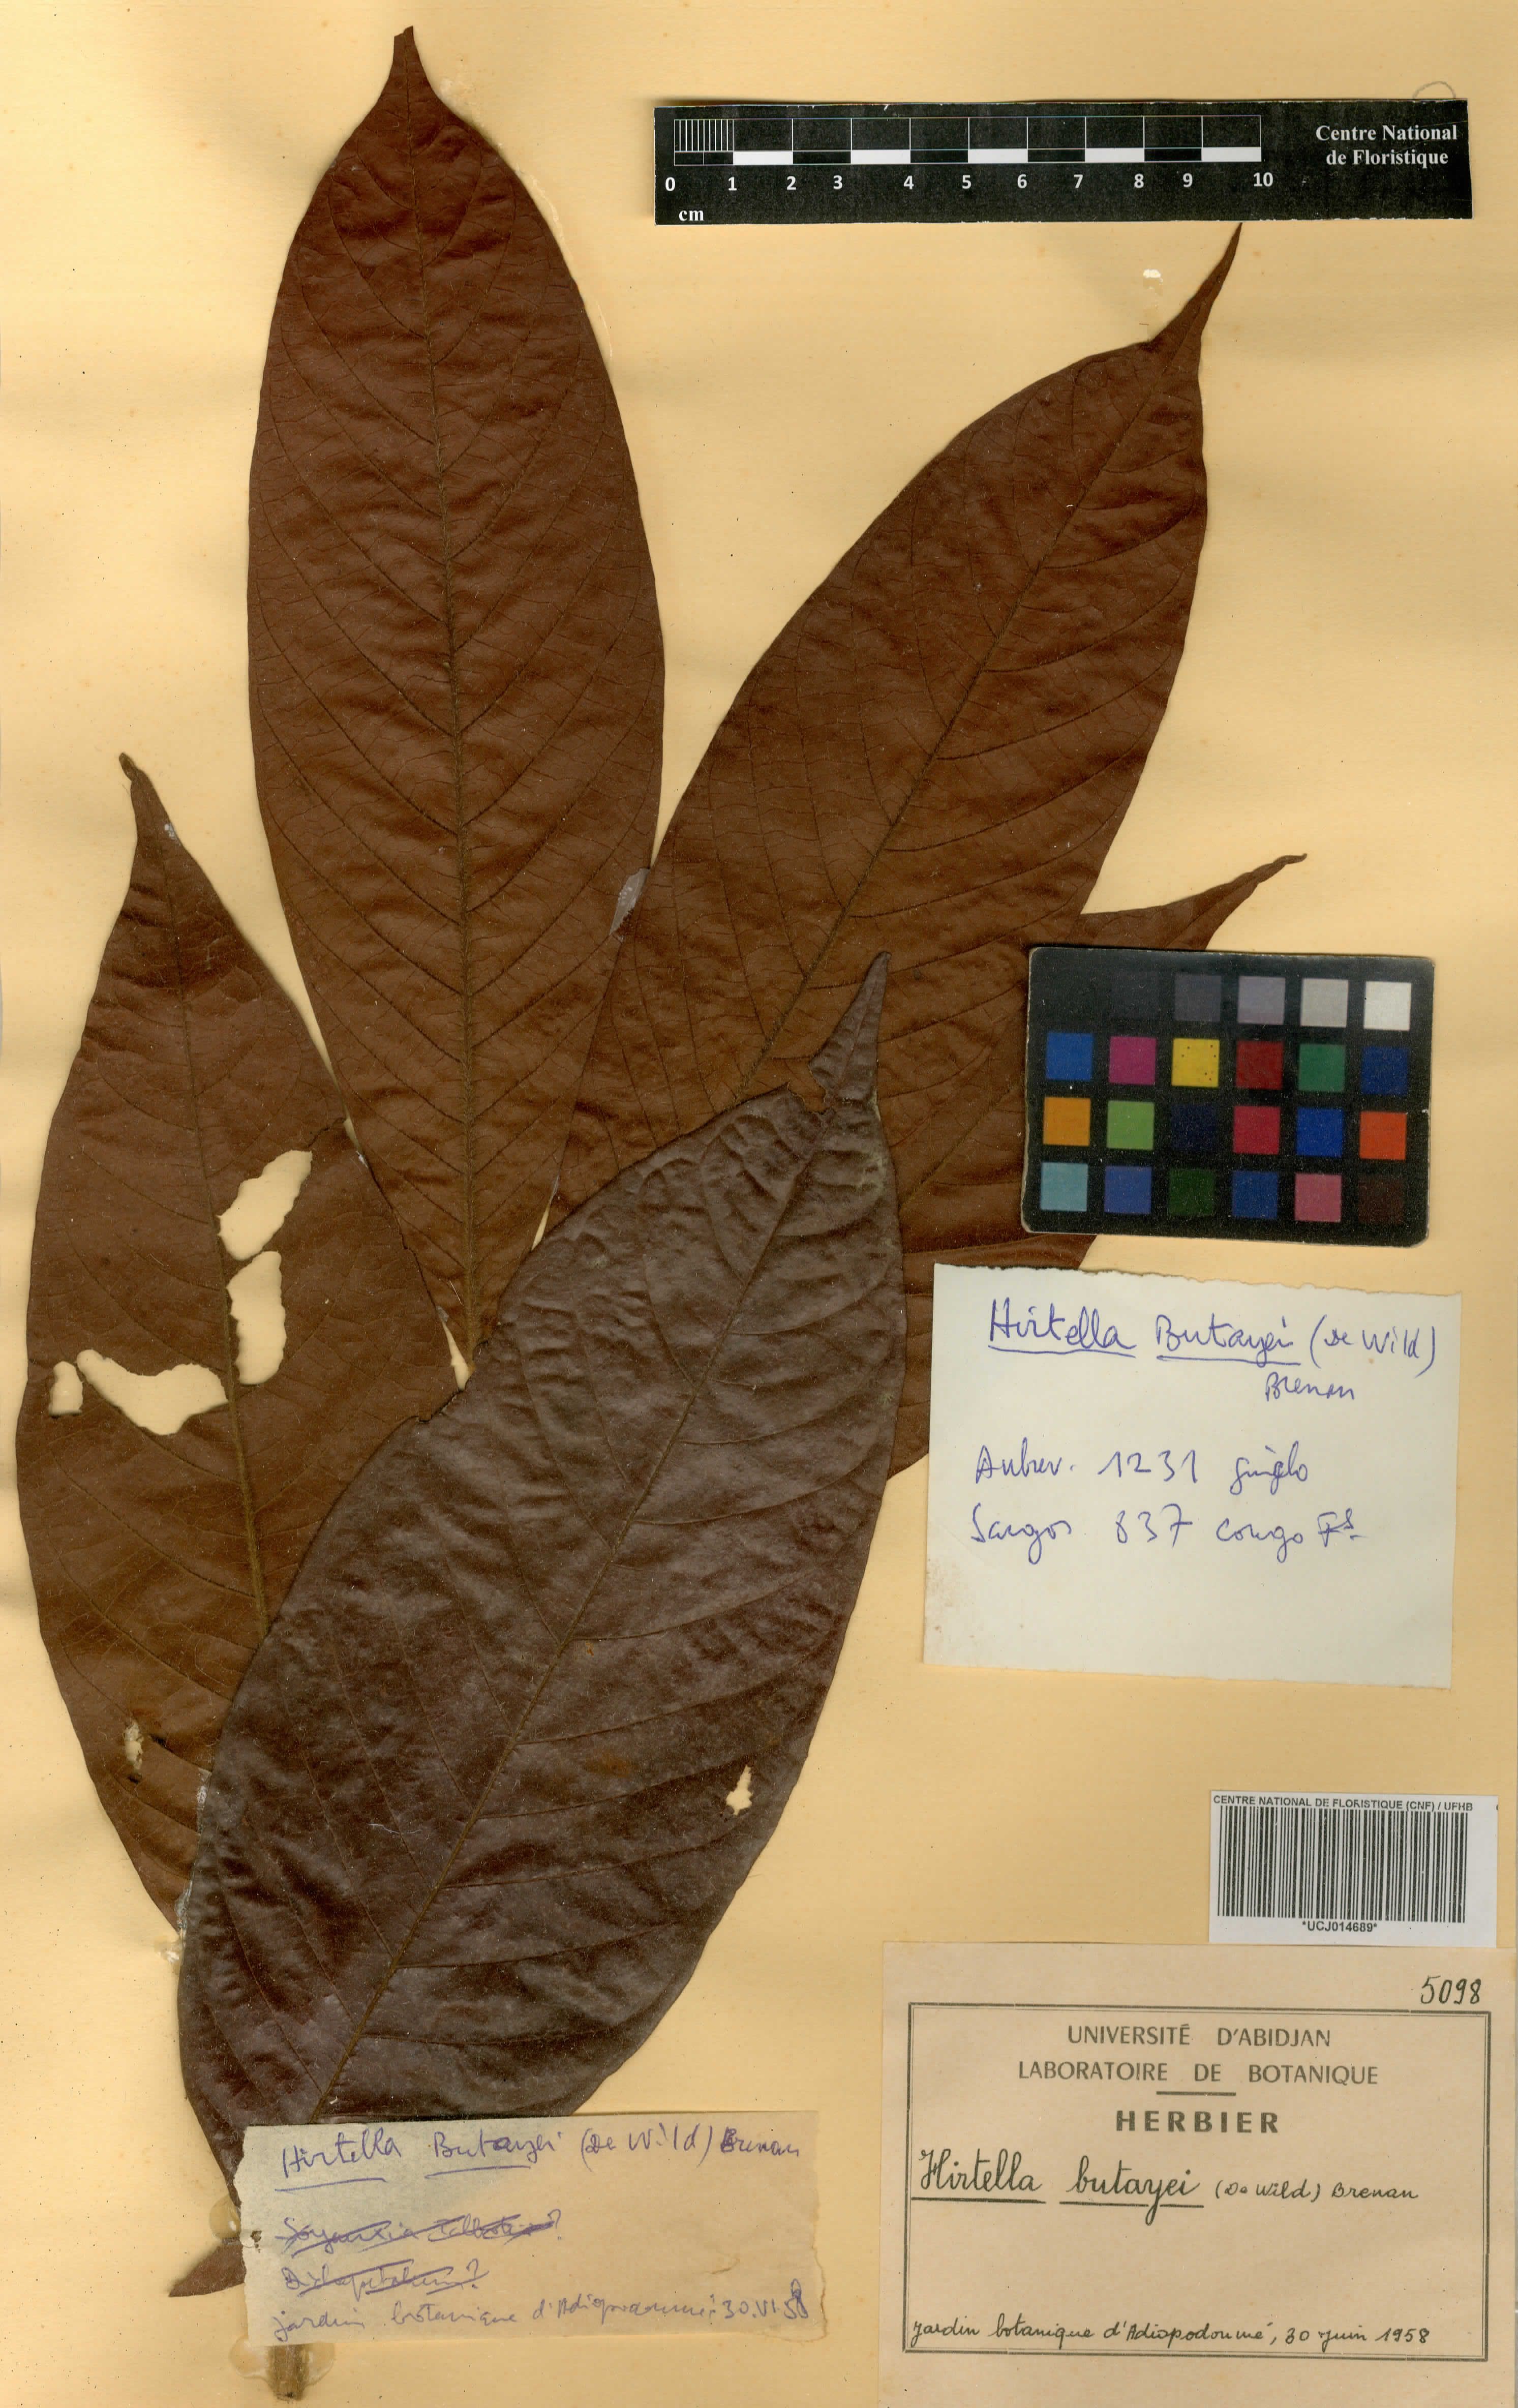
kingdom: Plantae
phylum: Tracheophyta
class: Magnoliopsida
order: Malpighiales
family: Chrysobalanaceae
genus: Magnistipula
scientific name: Magnistipula butayei
